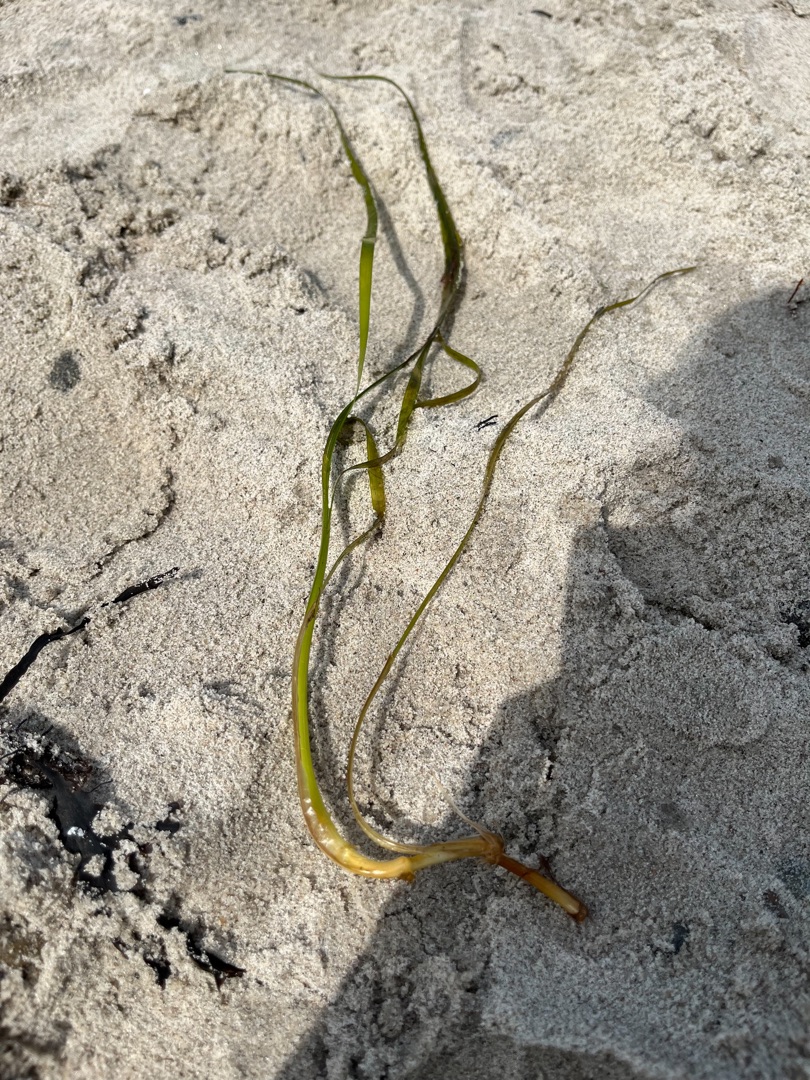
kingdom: Plantae
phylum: Tracheophyta
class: Liliopsida
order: Alismatales
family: Zosteraceae
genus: Zostera
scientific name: Zostera marina
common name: Almindelig bændeltang
